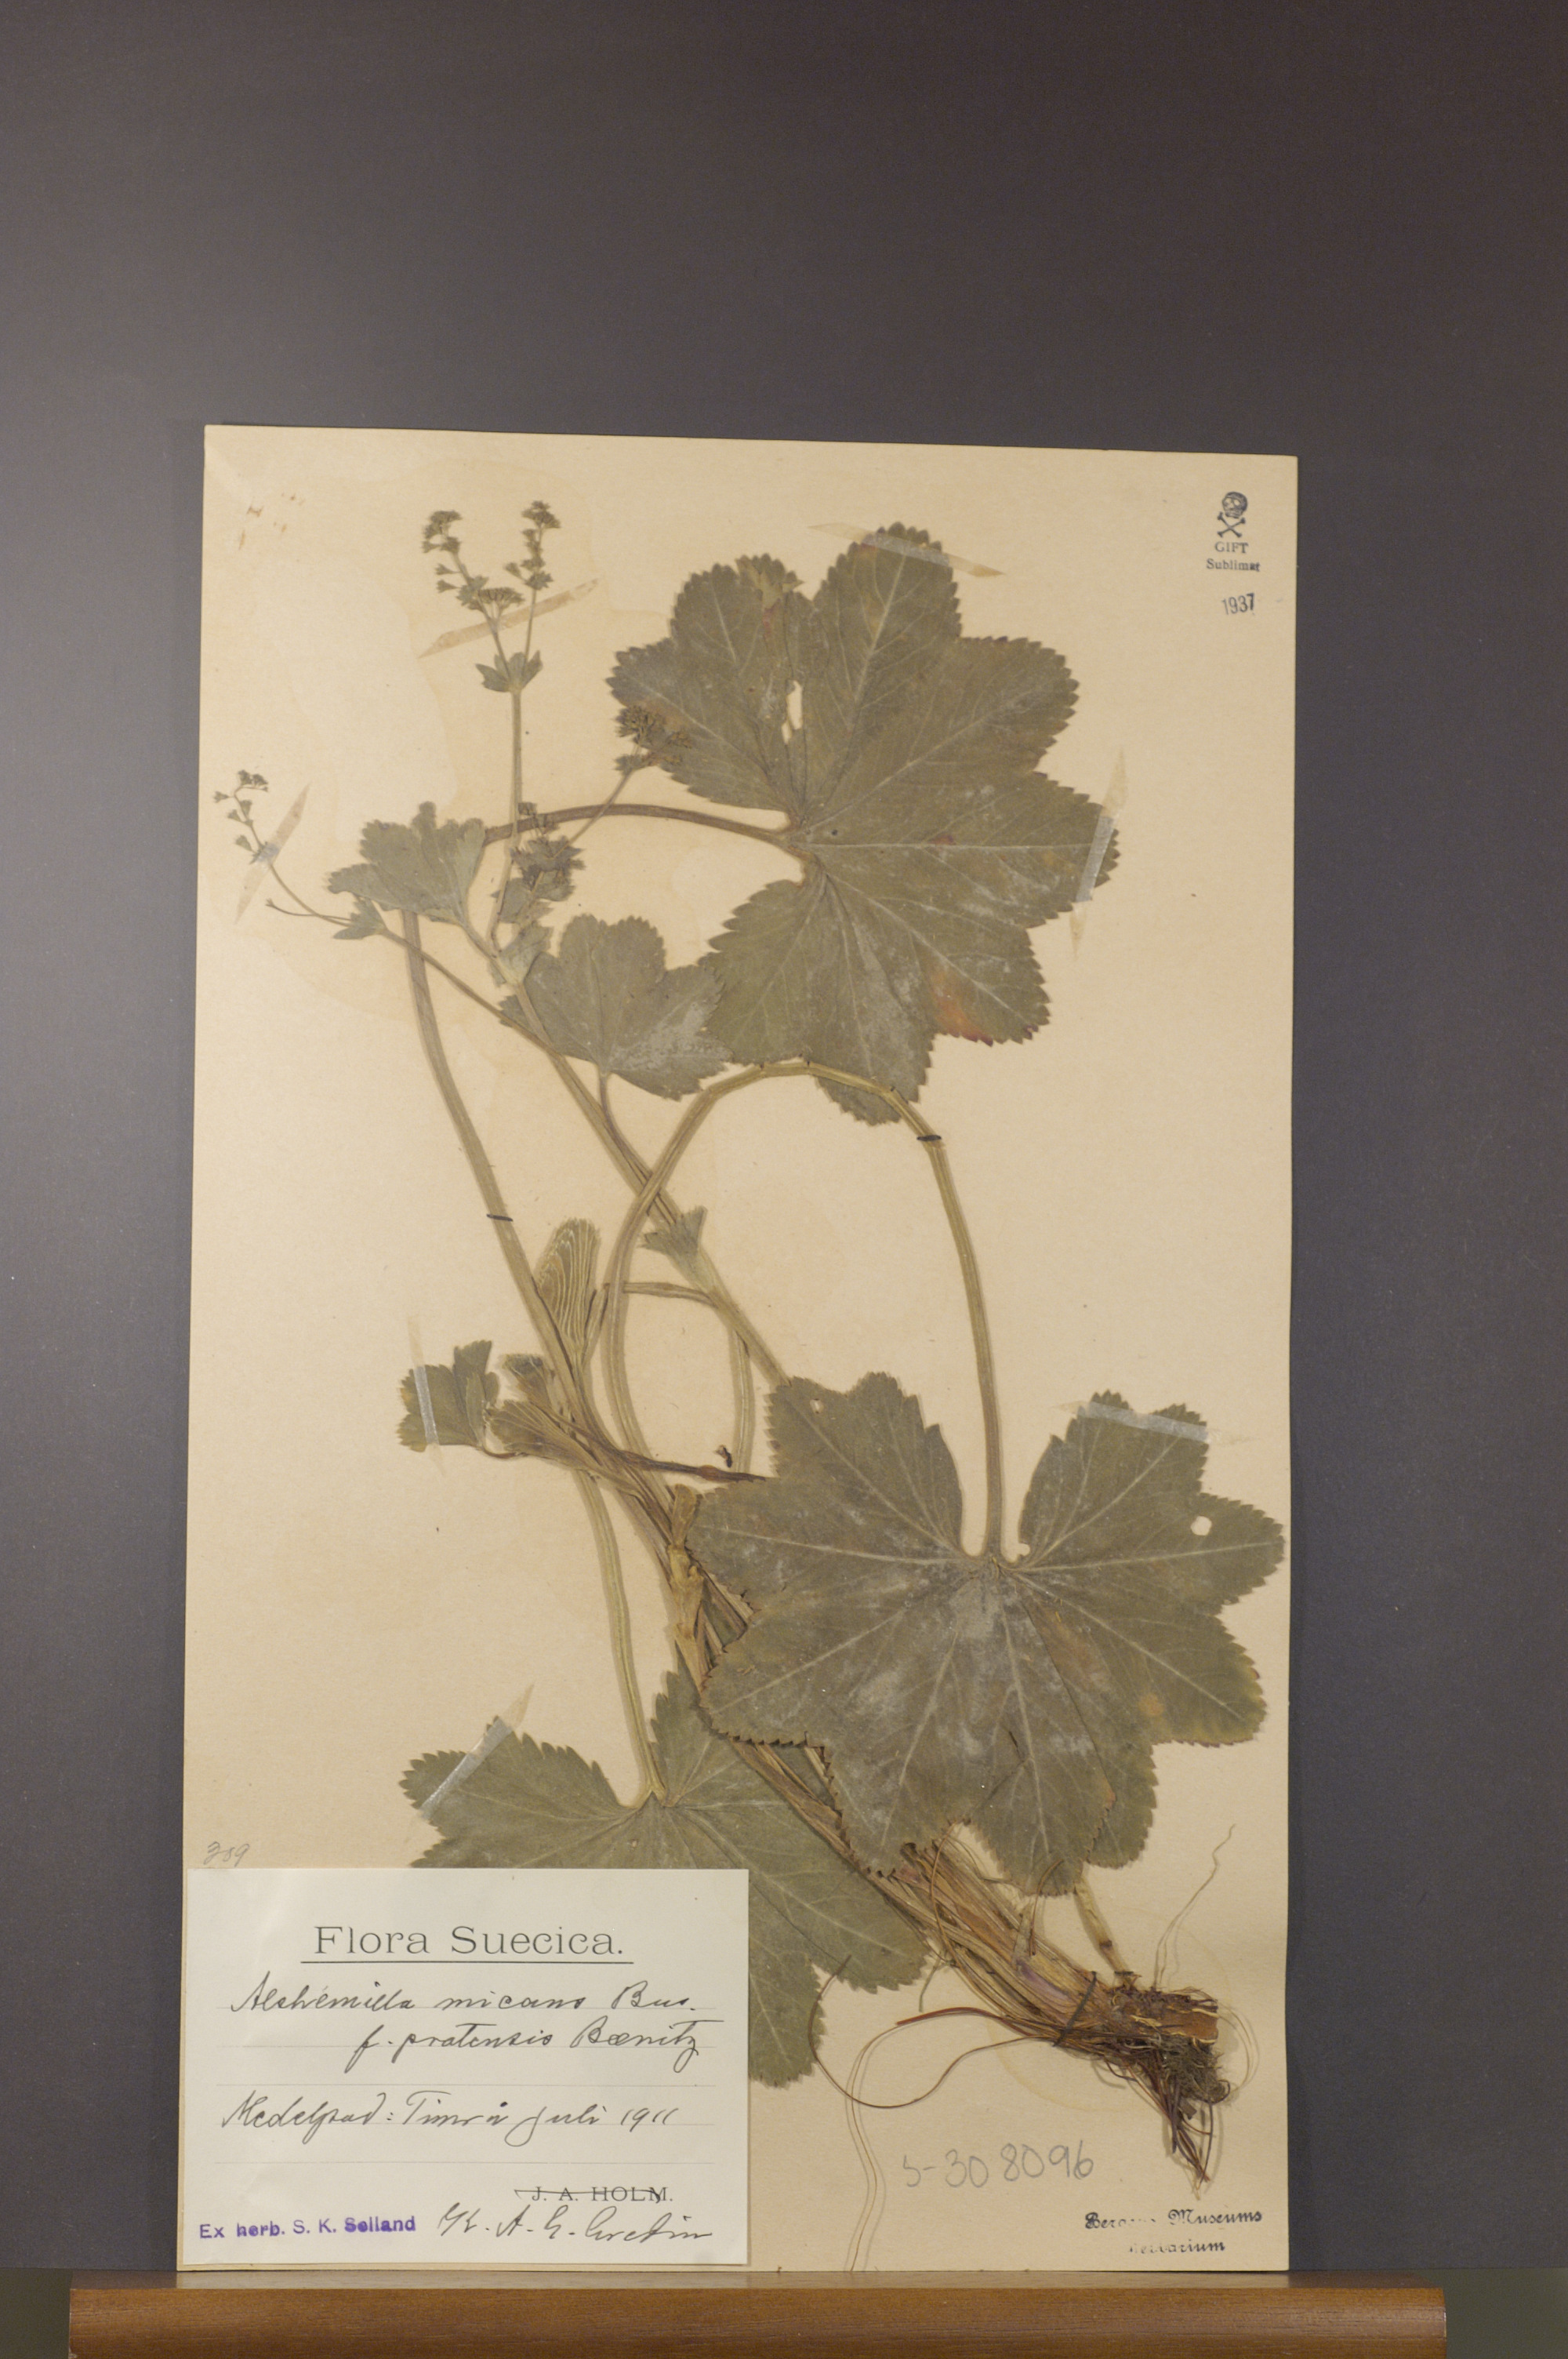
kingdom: Plantae
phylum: Tracheophyta
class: Magnoliopsida
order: Rosales
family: Rosaceae
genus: Alchemilla
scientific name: Alchemilla micans
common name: Gleaming lady's mantle
